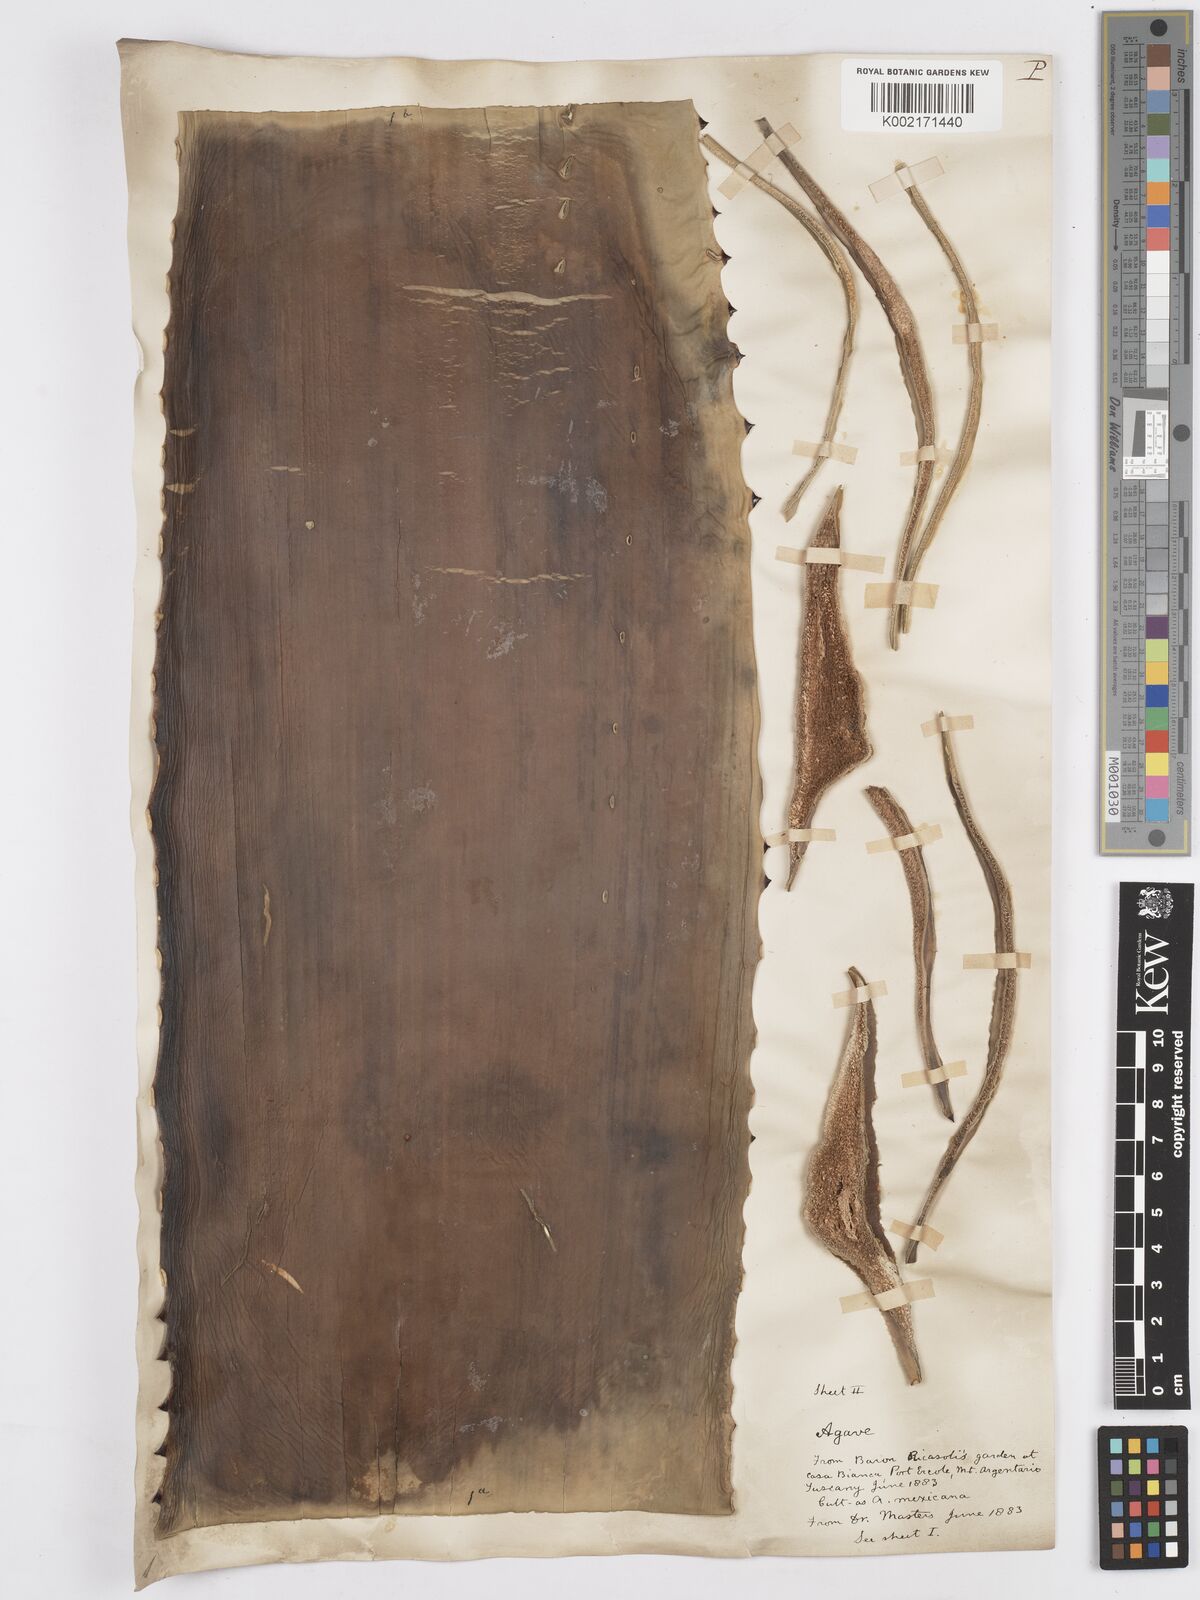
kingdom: Plantae
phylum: Tracheophyta
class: Liliopsida
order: Asparagales
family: Asparagaceae
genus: Agave
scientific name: Agave
